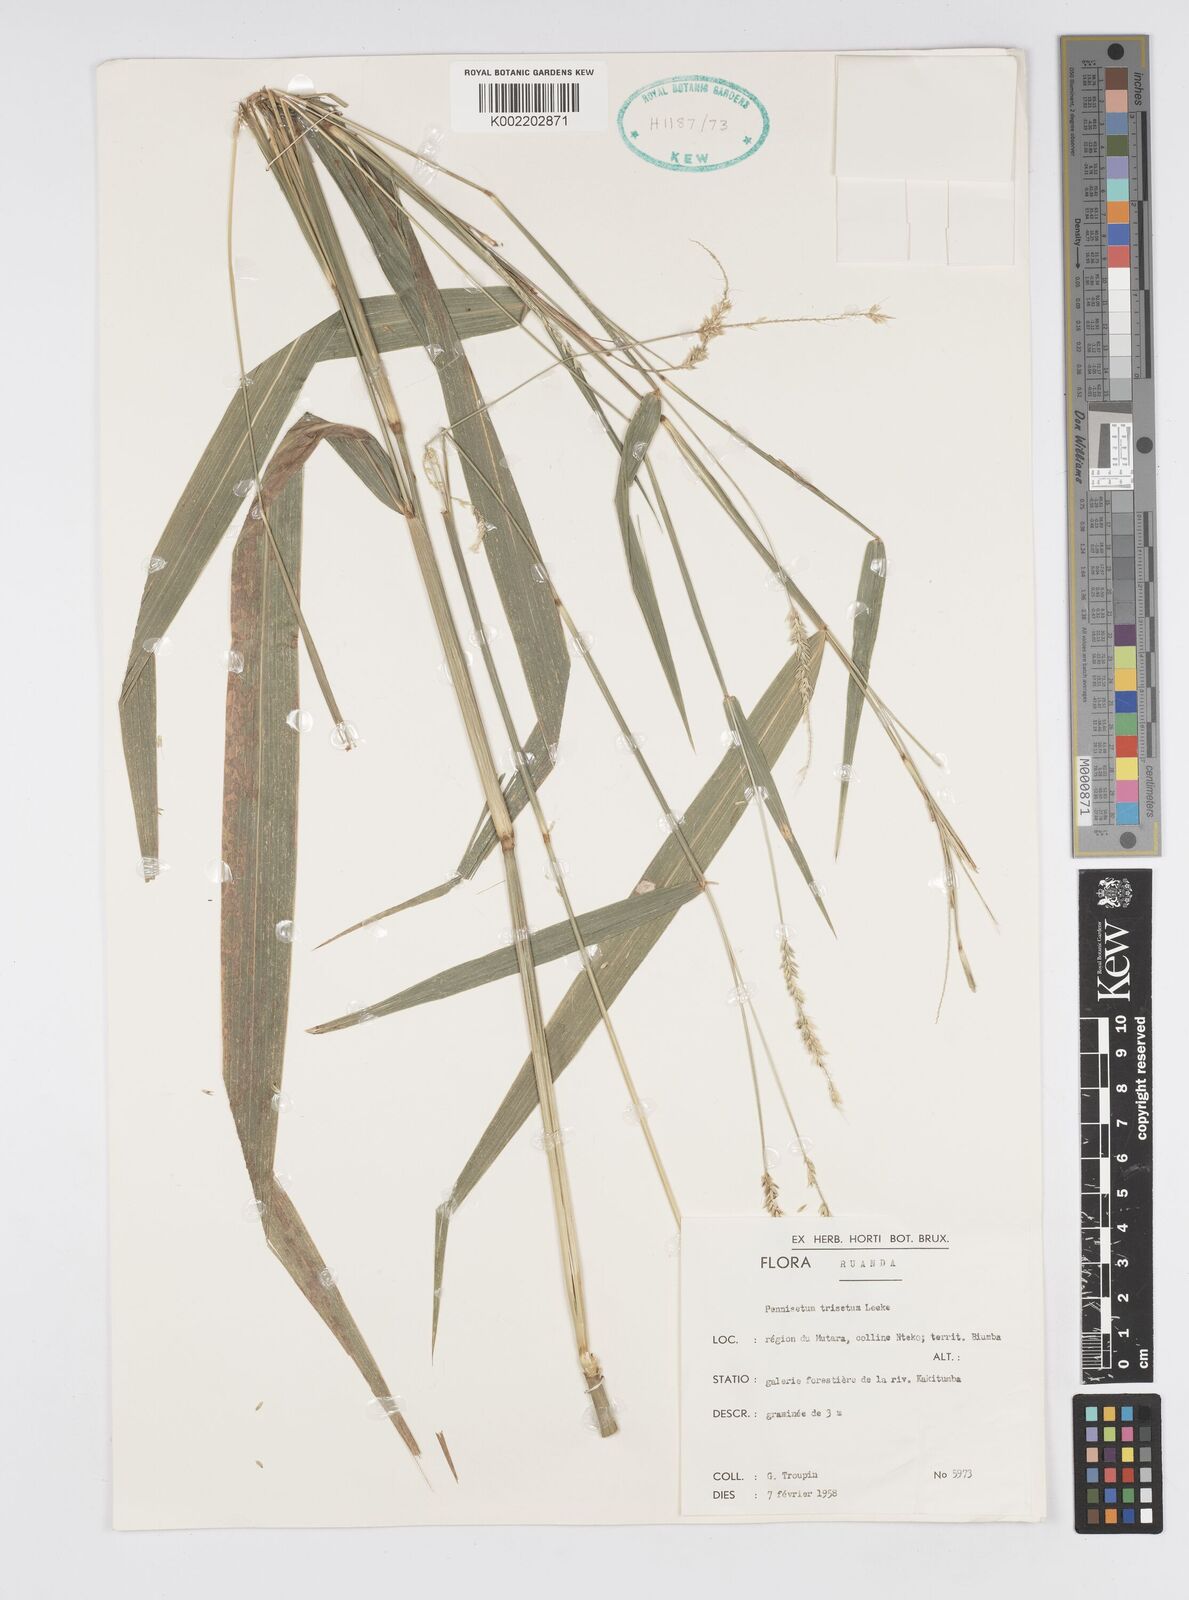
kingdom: Plantae
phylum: Tracheophyta
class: Liliopsida
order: Poales
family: Poaceae
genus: Cenchrus
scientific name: Cenchrus trisetus
